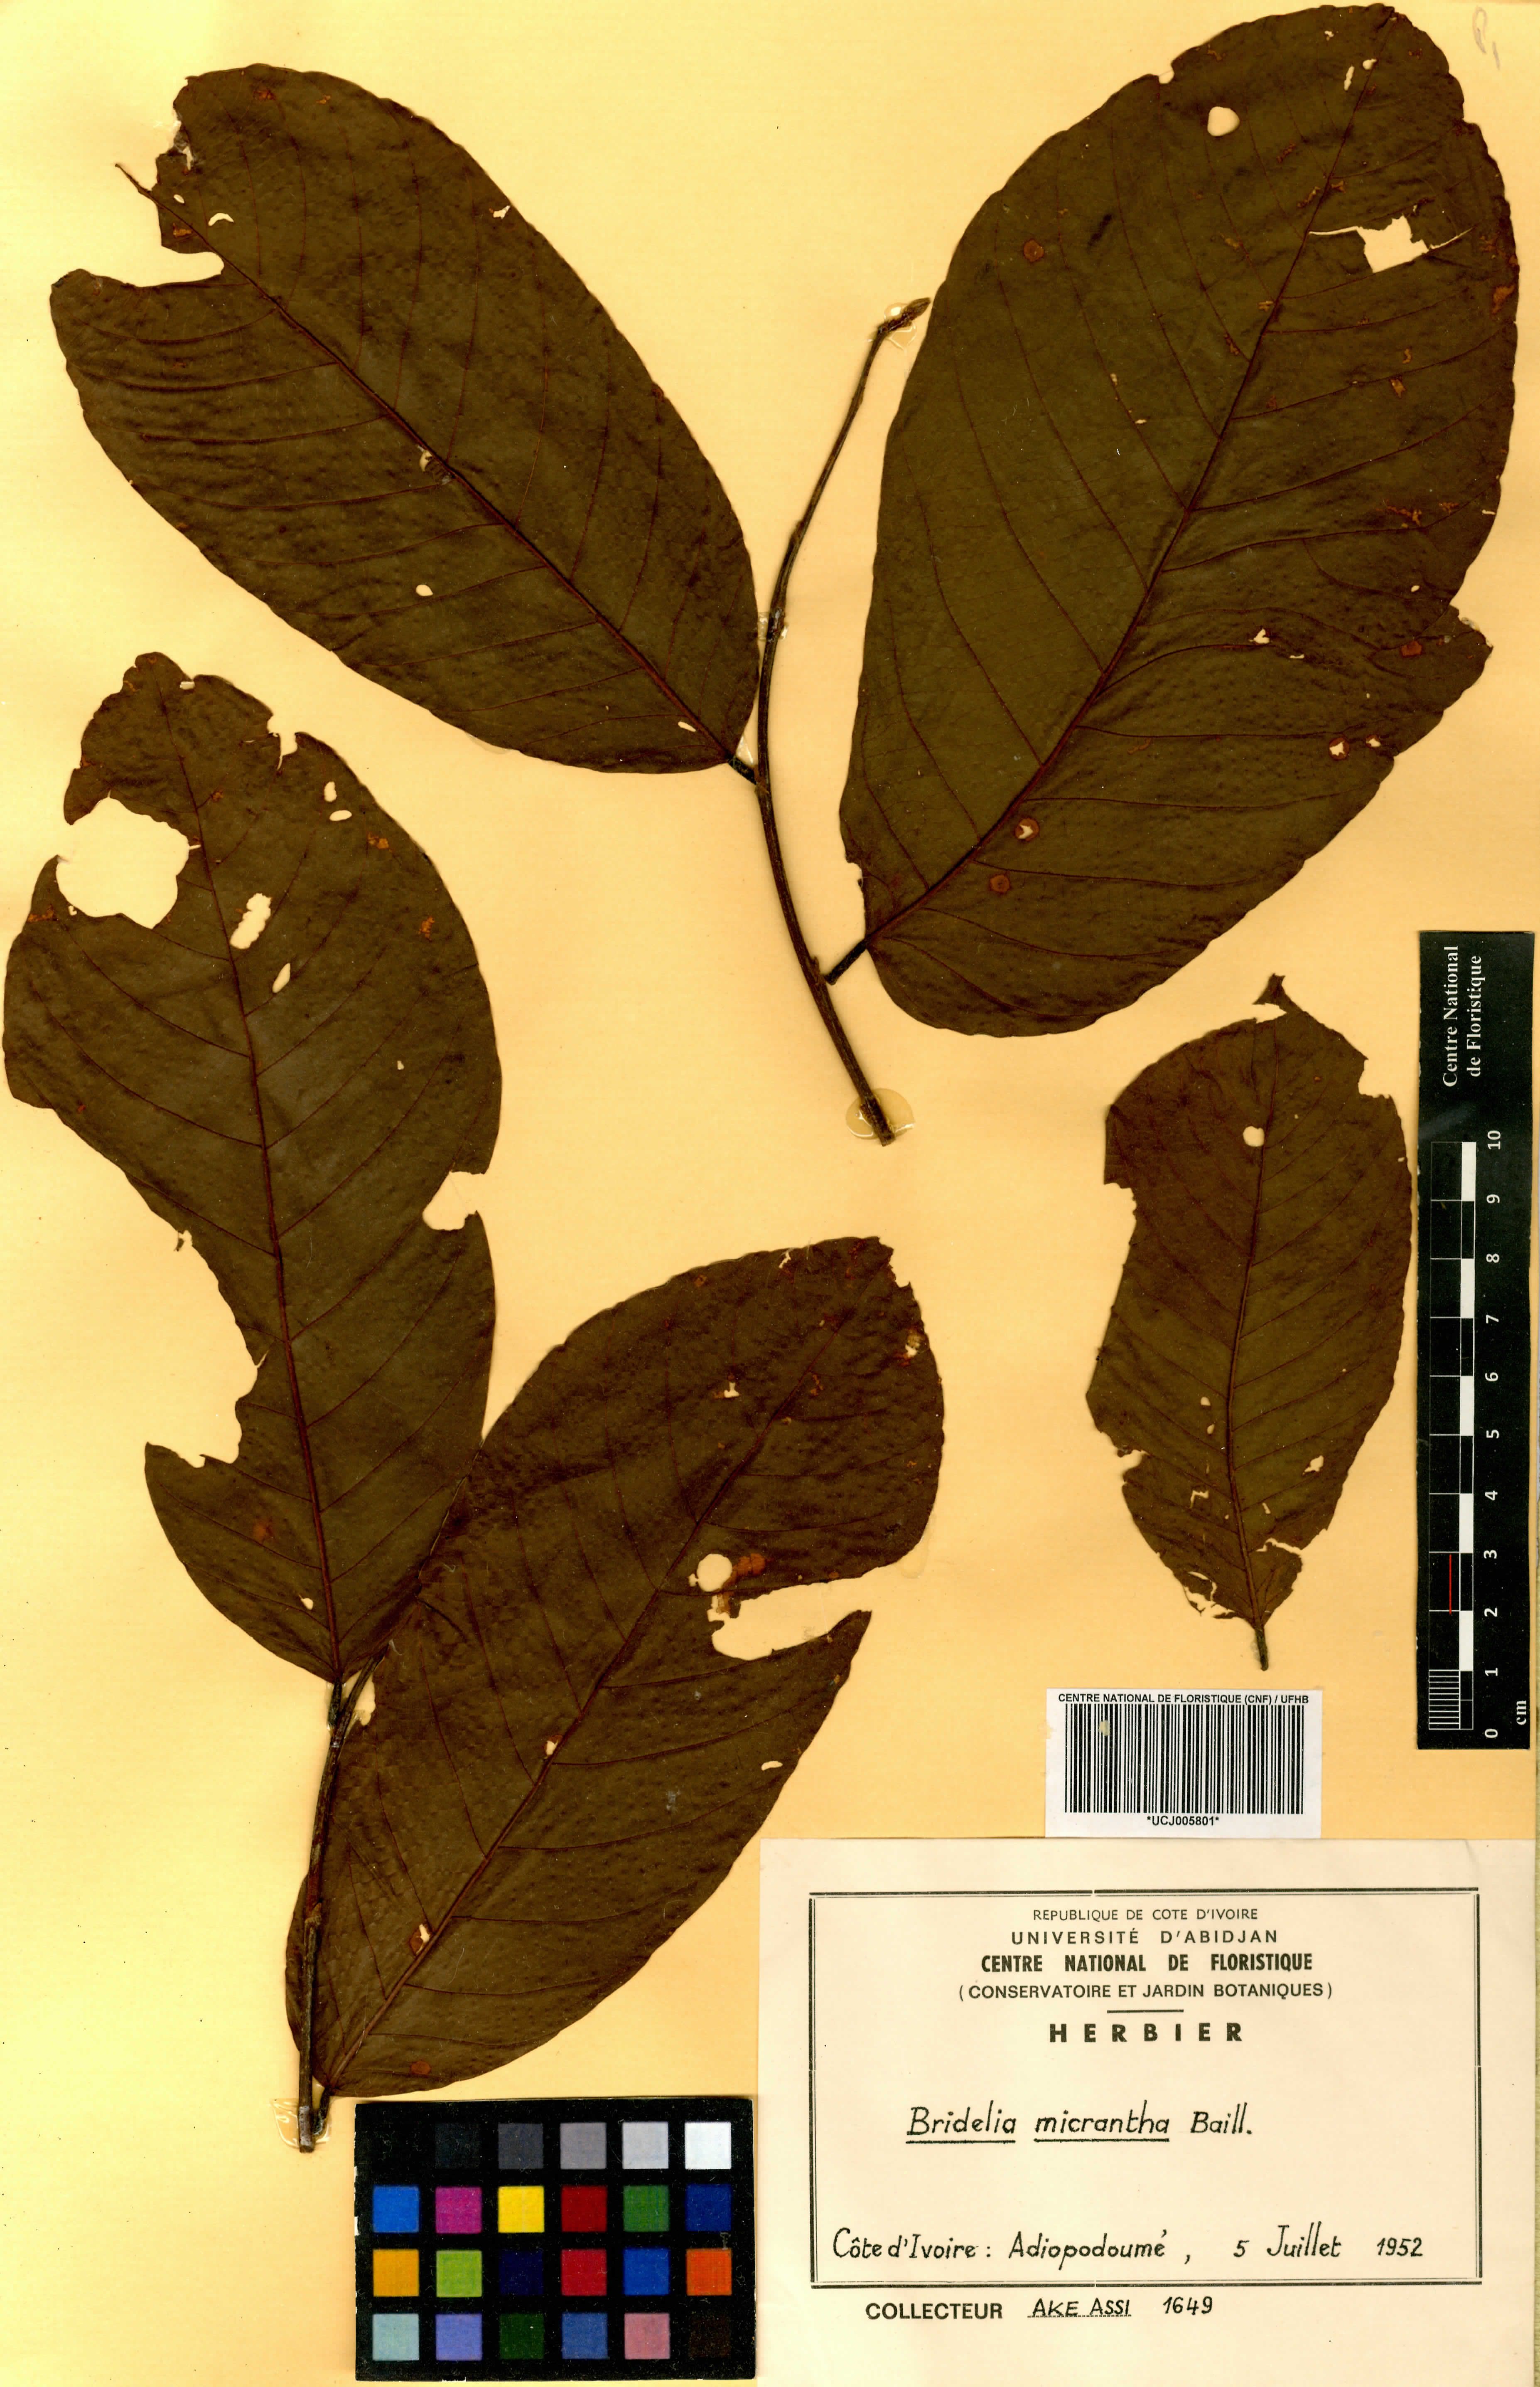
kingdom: Plantae
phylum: Tracheophyta
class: Magnoliopsida
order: Malpighiales
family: Phyllanthaceae
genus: Bridelia
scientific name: Bridelia micrantha
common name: Bridelia
